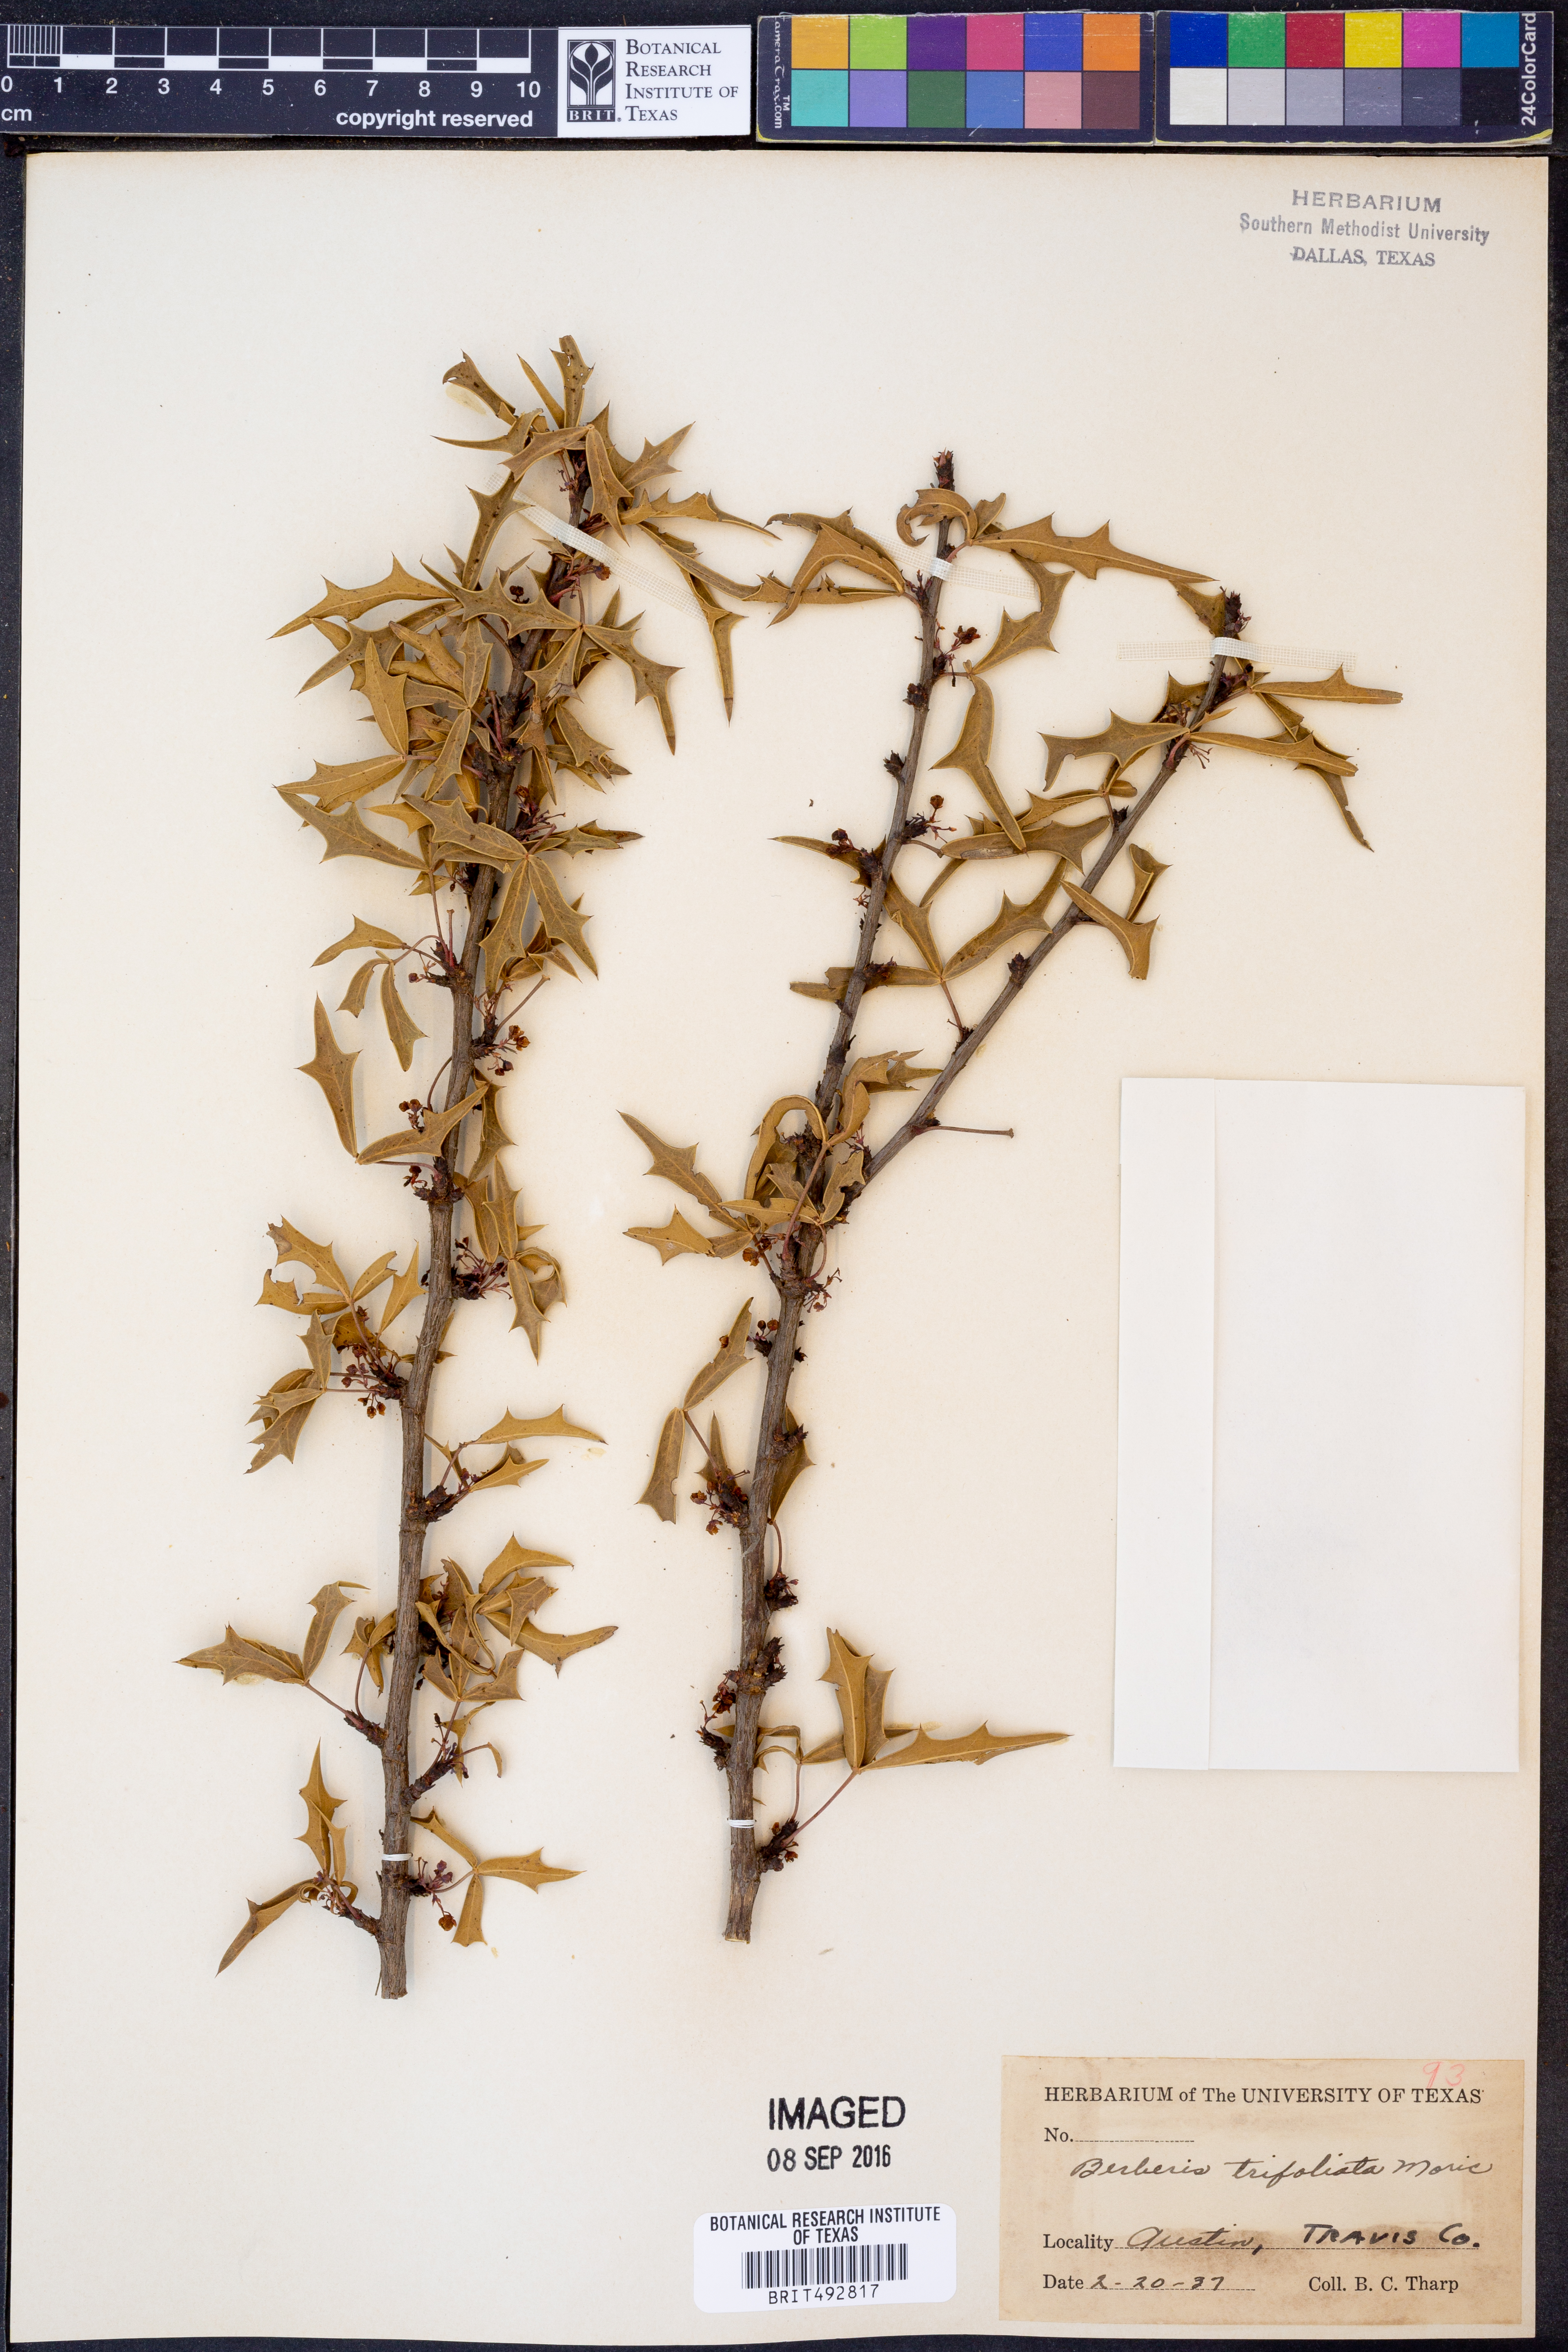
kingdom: Plantae
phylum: Tracheophyta
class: Magnoliopsida
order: Ranunculales
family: Berberidaceae
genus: Alloberberis
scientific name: Alloberberis fremontii
